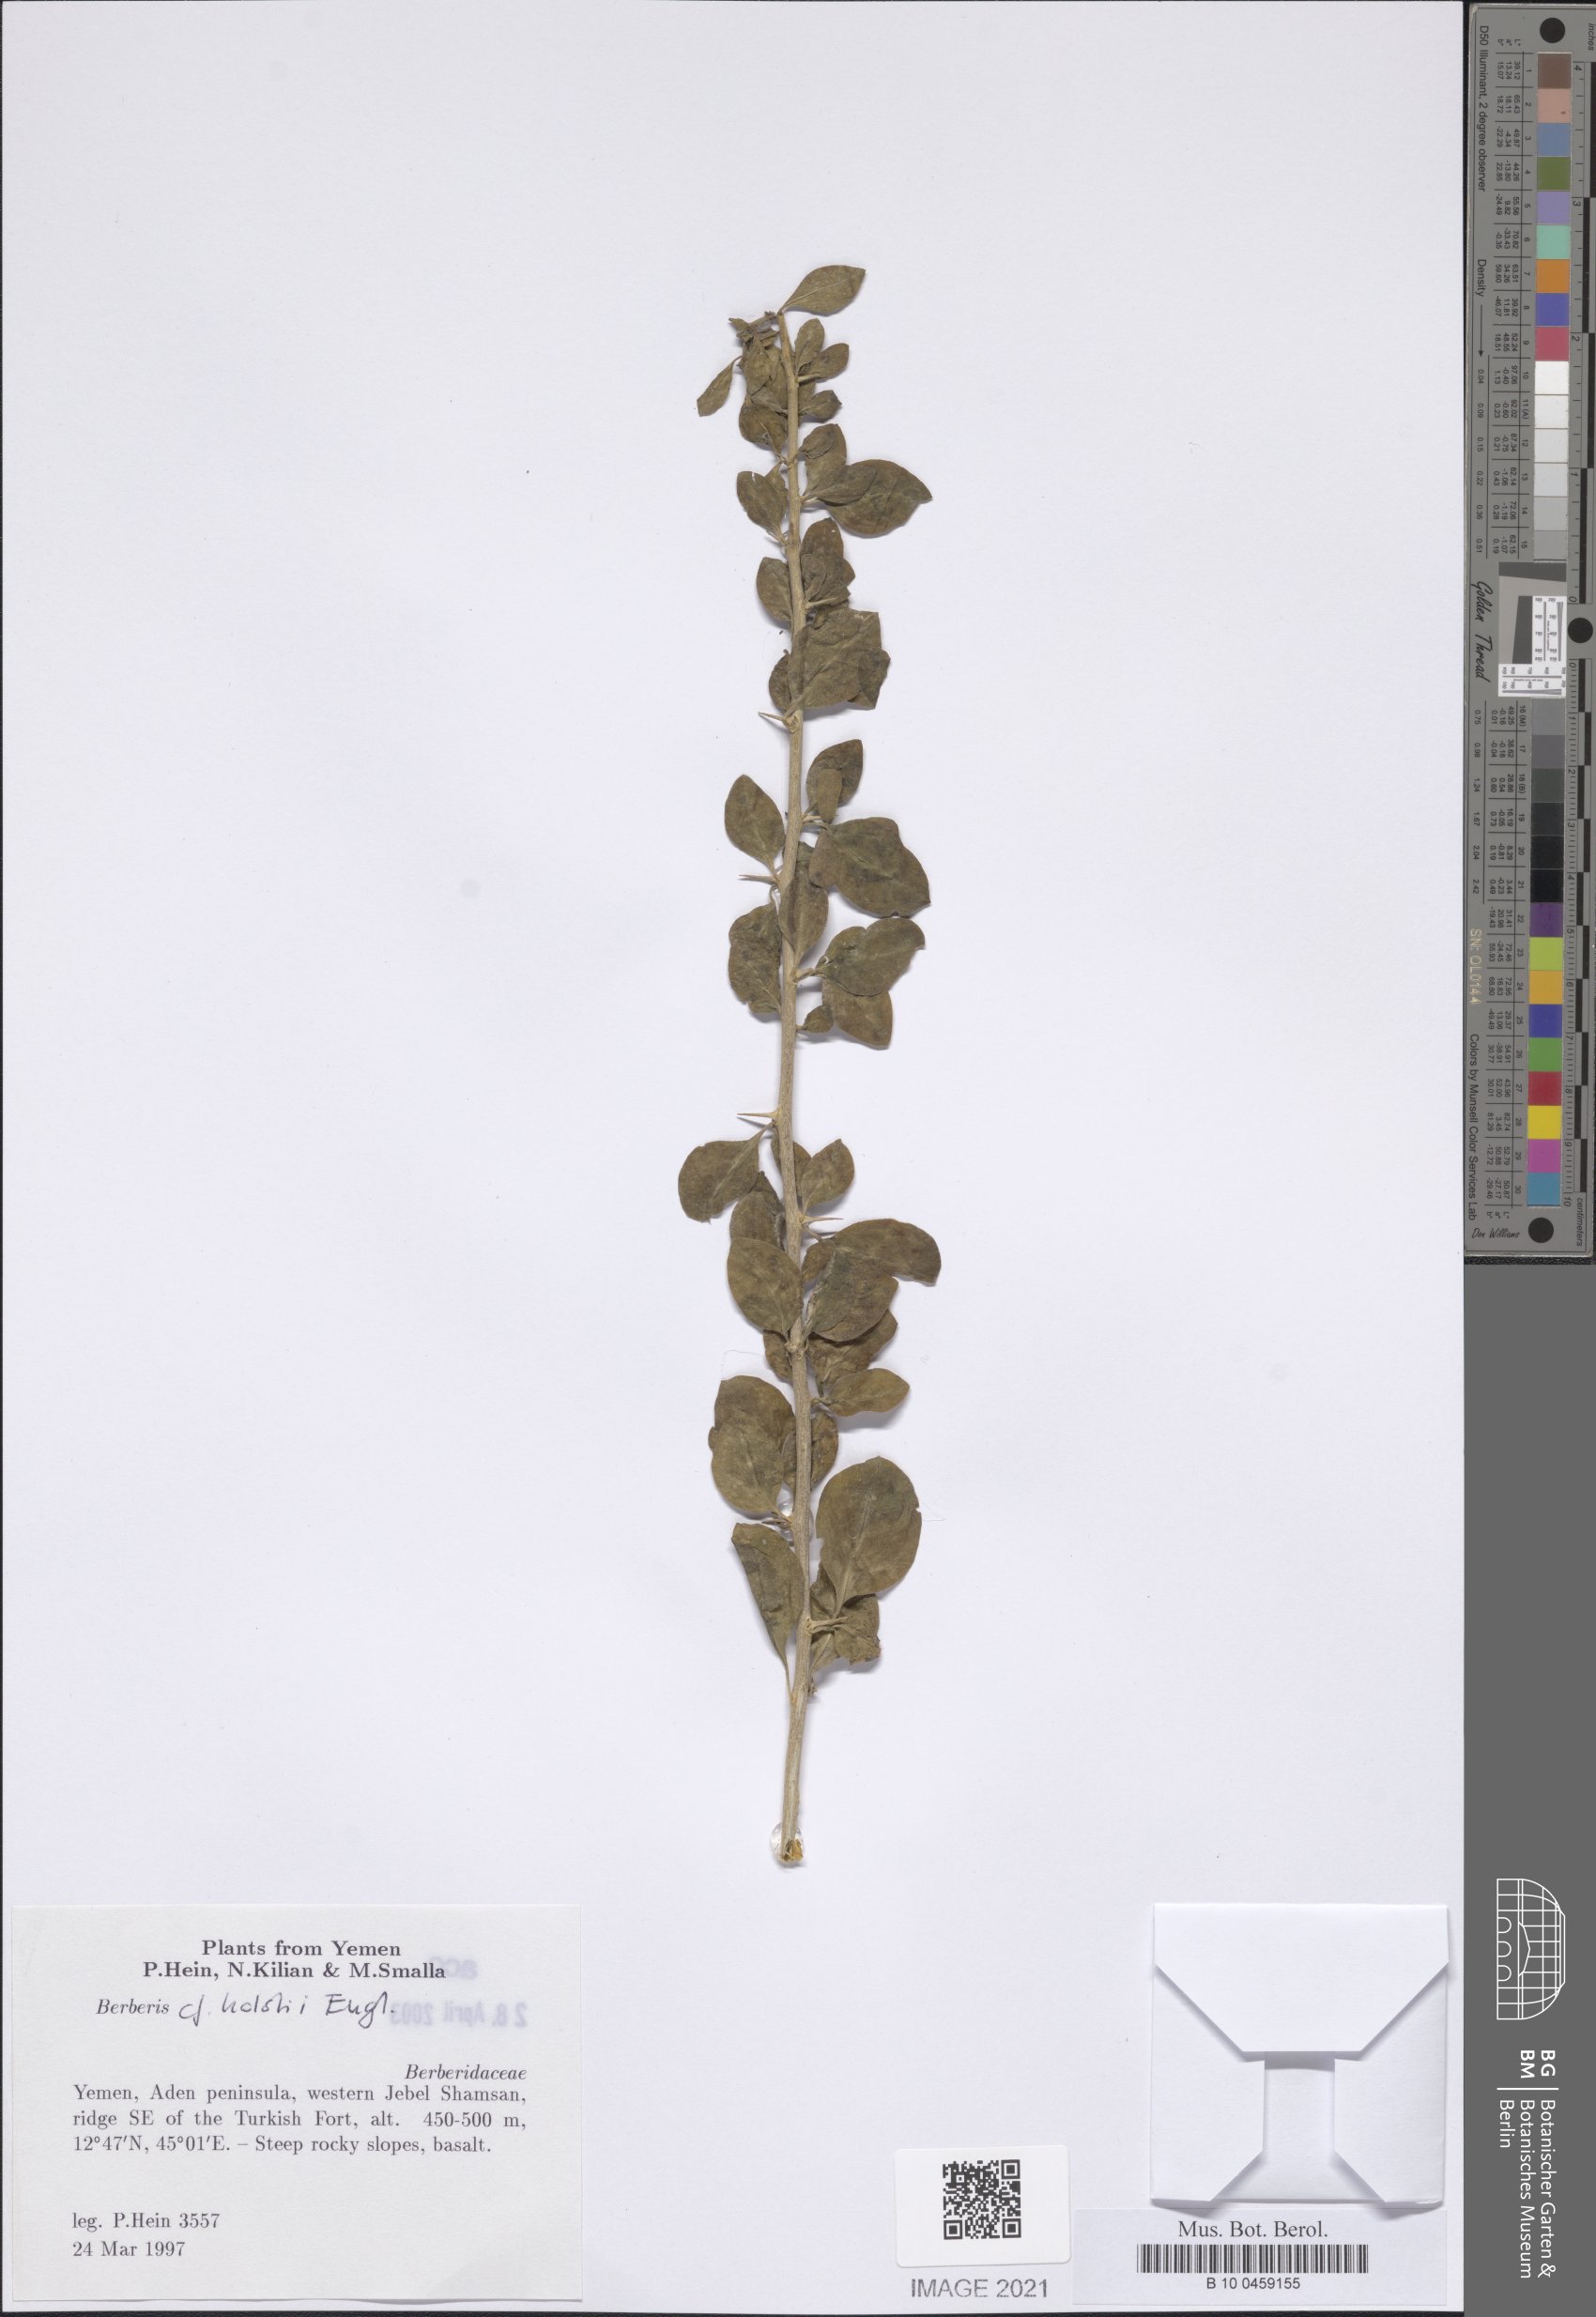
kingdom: Plantae
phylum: Tracheophyta
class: Magnoliopsida
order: Ranunculales
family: Berberidaceae
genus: Berberis
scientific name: Berberis holstii
